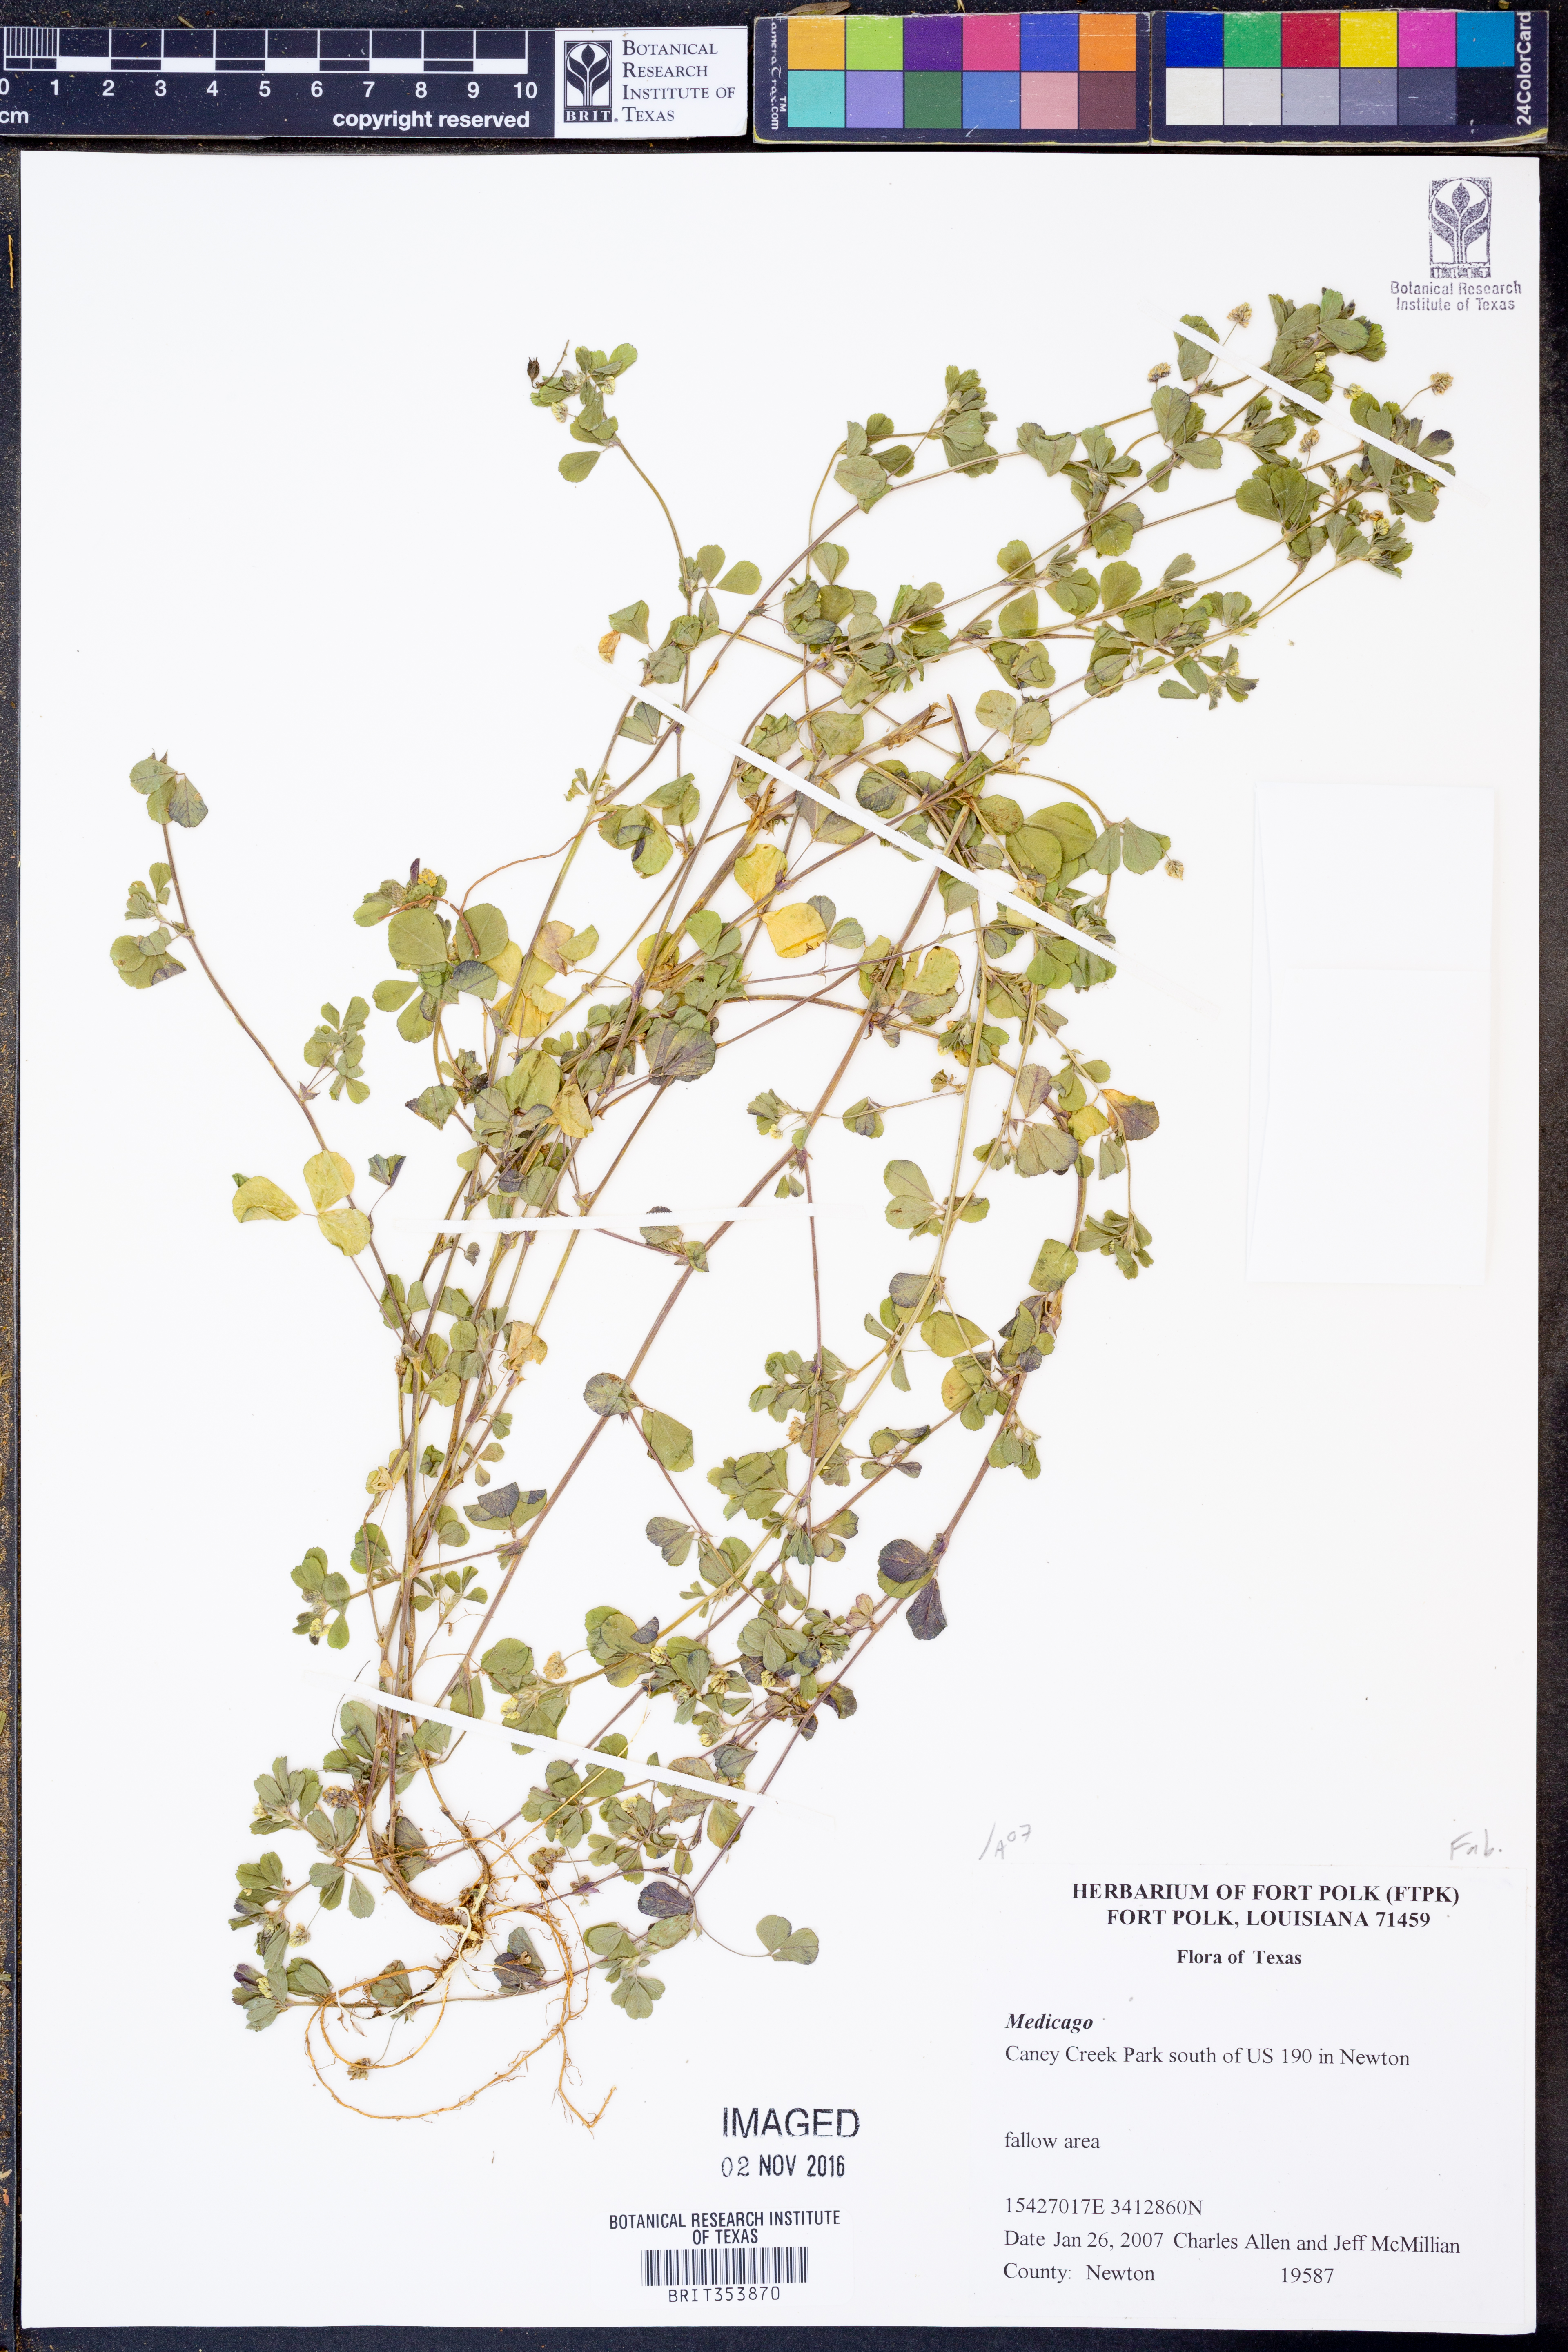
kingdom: Plantae
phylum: Tracheophyta
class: Magnoliopsida
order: Fabales
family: Fabaceae
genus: Medicago
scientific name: Medicago
